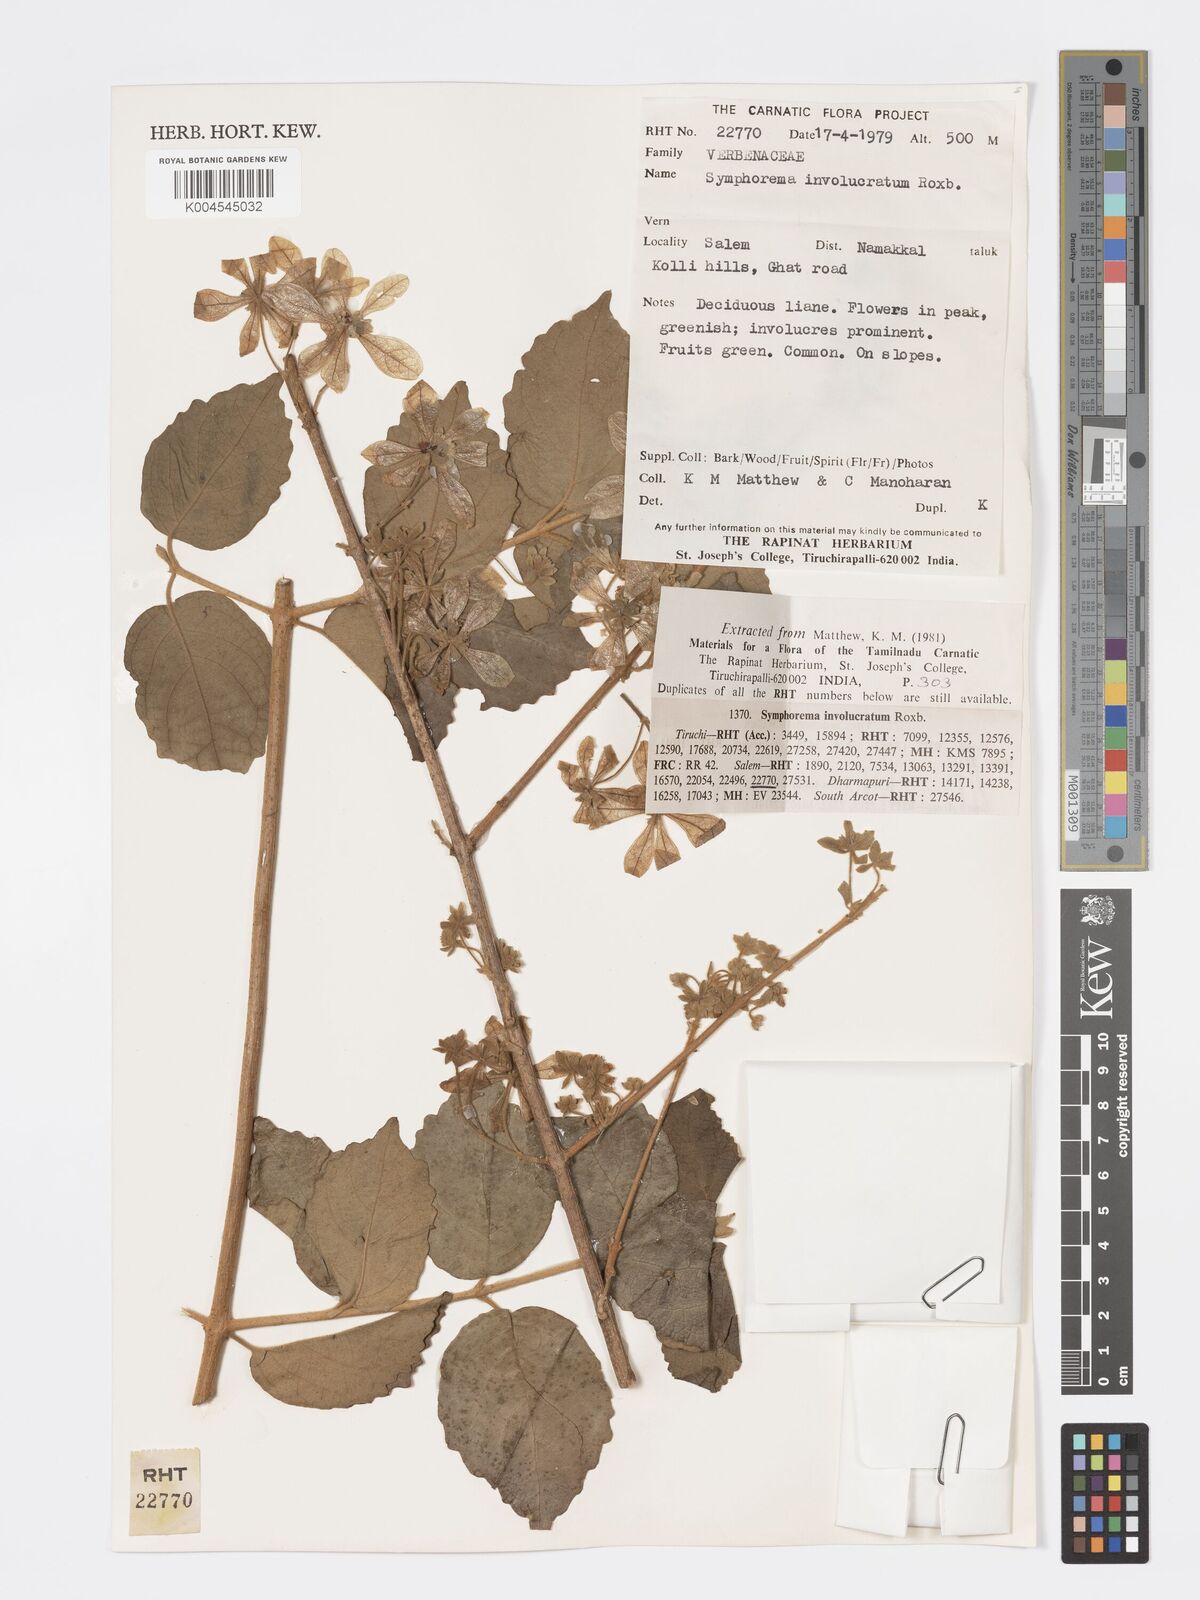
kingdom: Plantae
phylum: Tracheophyta
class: Magnoliopsida
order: Lamiales
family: Lamiaceae
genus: Symphorema
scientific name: Symphorema involucratum
